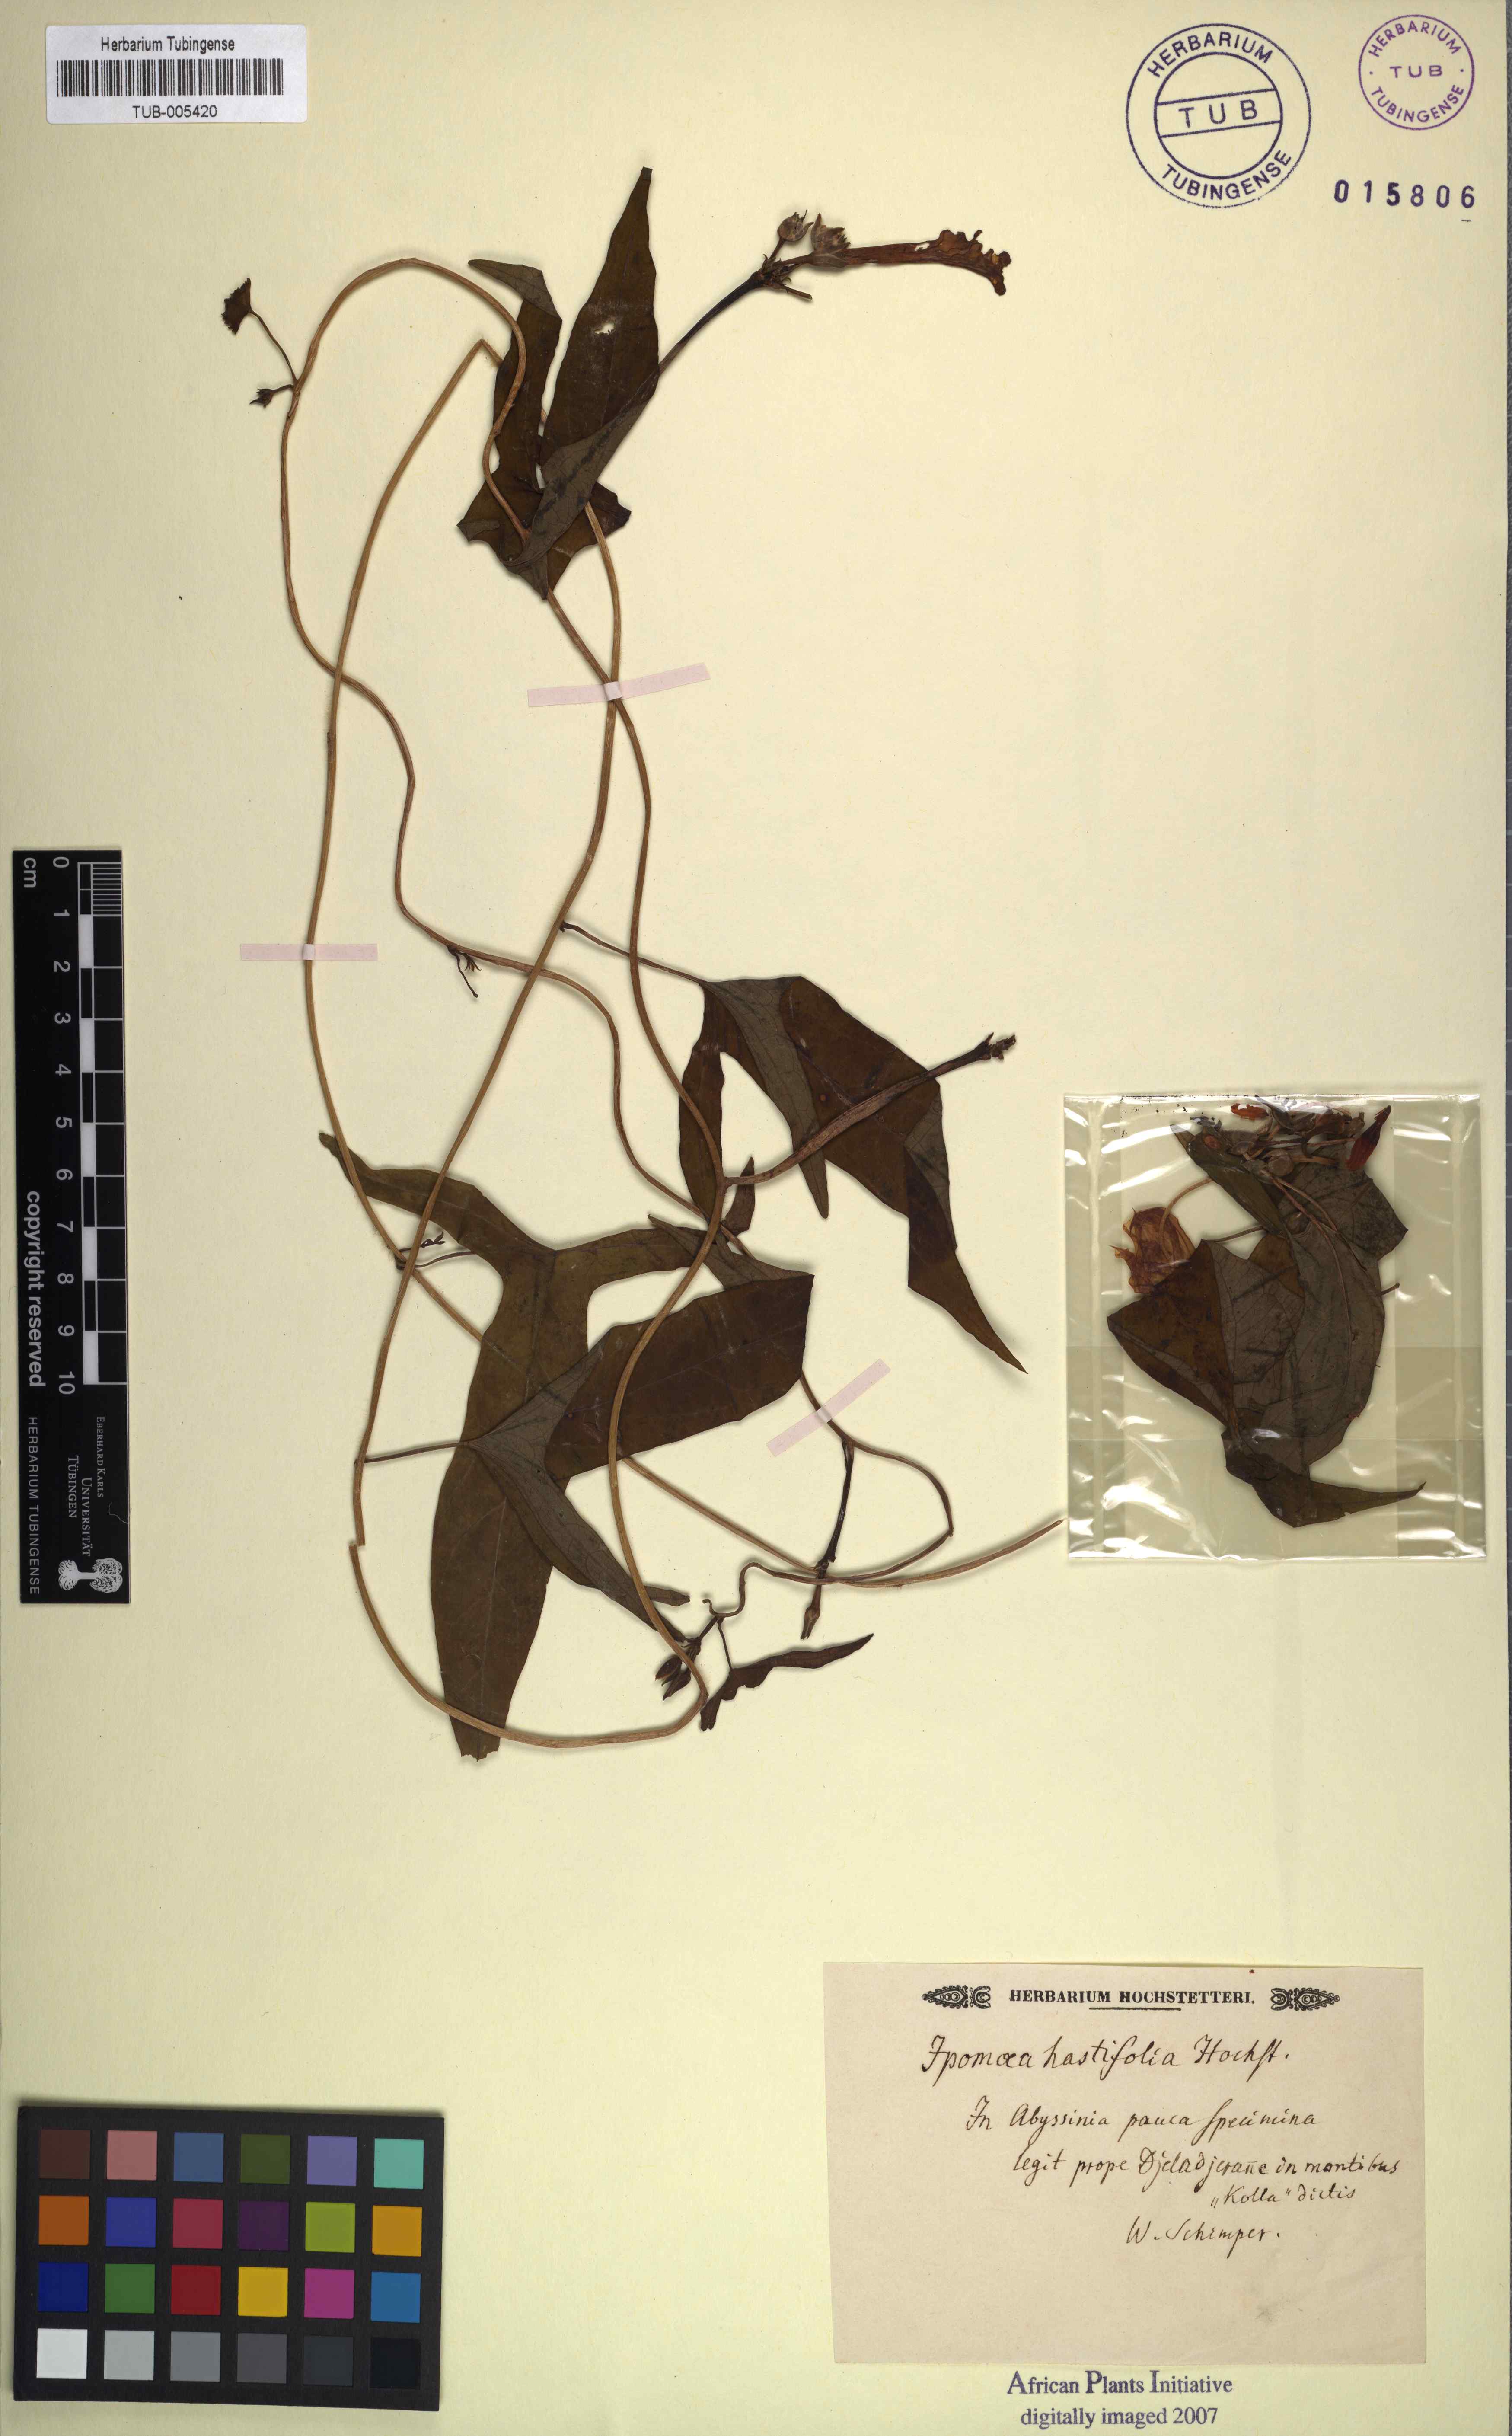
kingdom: Plantae
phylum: Tracheophyta
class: Magnoliopsida
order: Solanales
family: Convolvulaceae
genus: Ipomoea
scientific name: Ipomoea hastifolia
